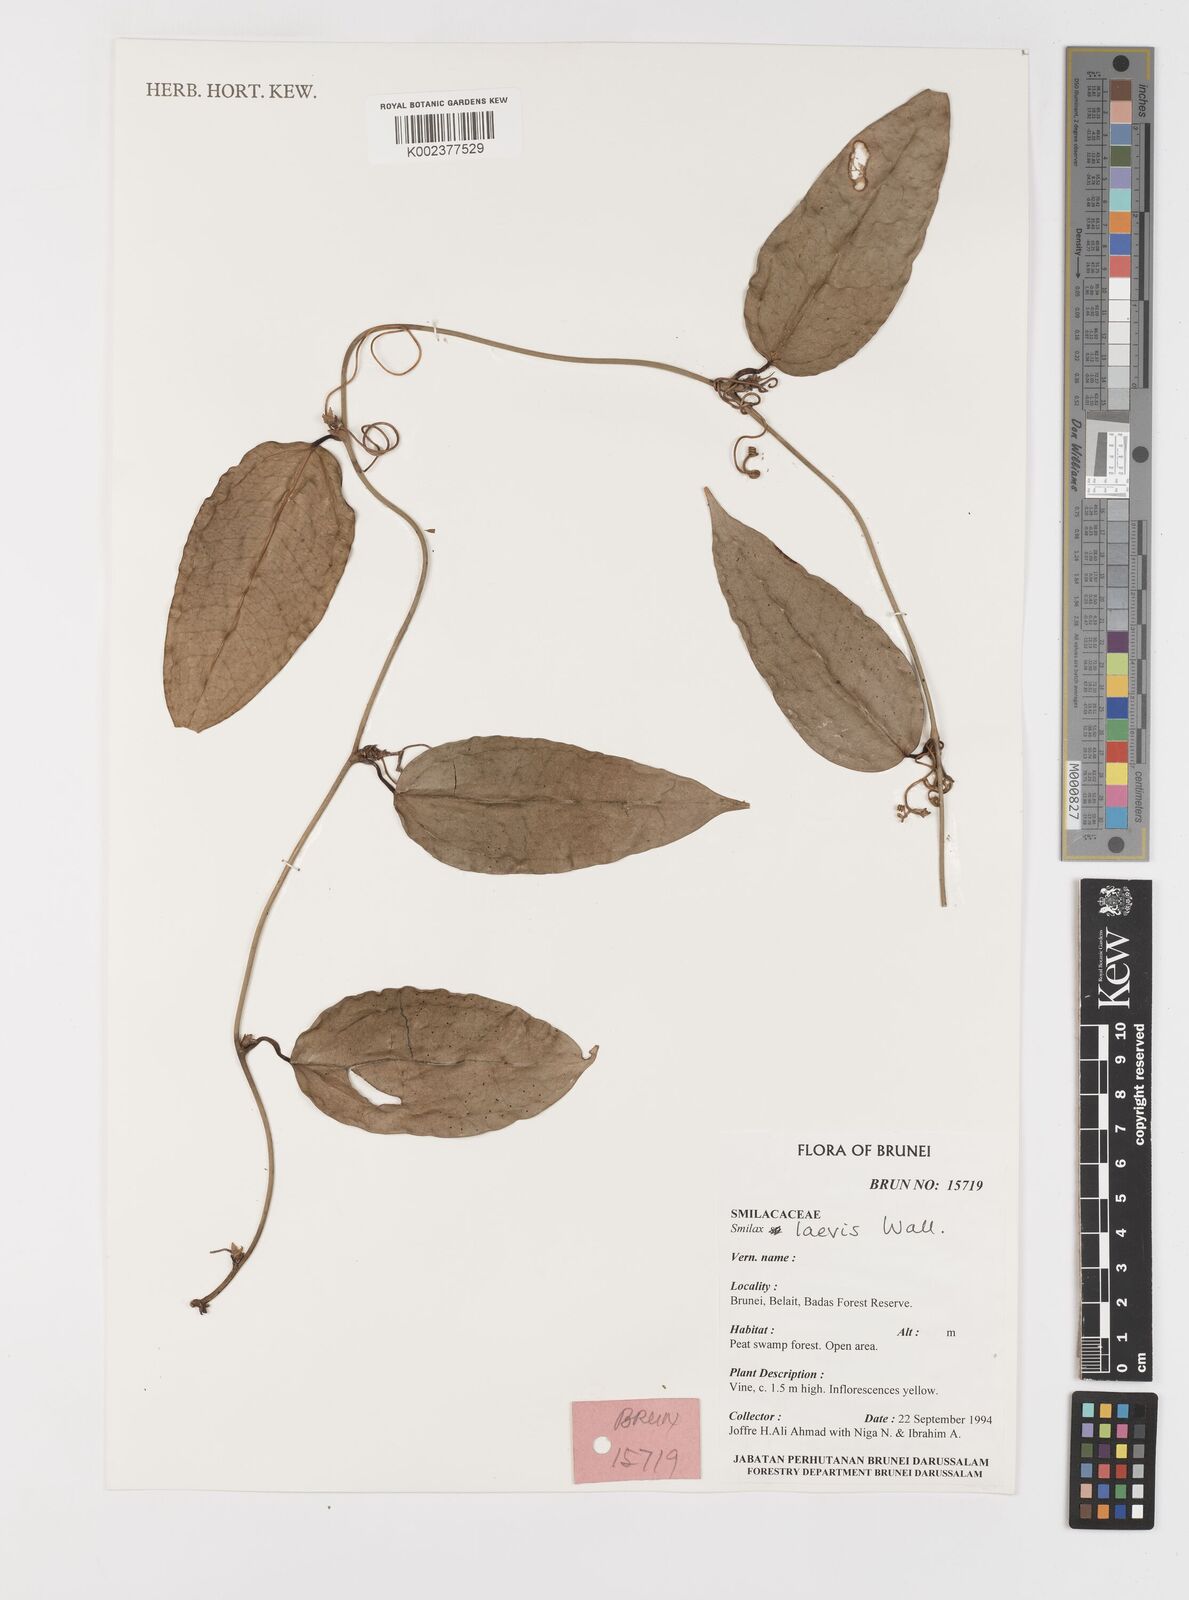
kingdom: Plantae
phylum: Tracheophyta
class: Liliopsida
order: Liliales
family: Smilacaceae
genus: Smilax
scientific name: Smilax laevis
